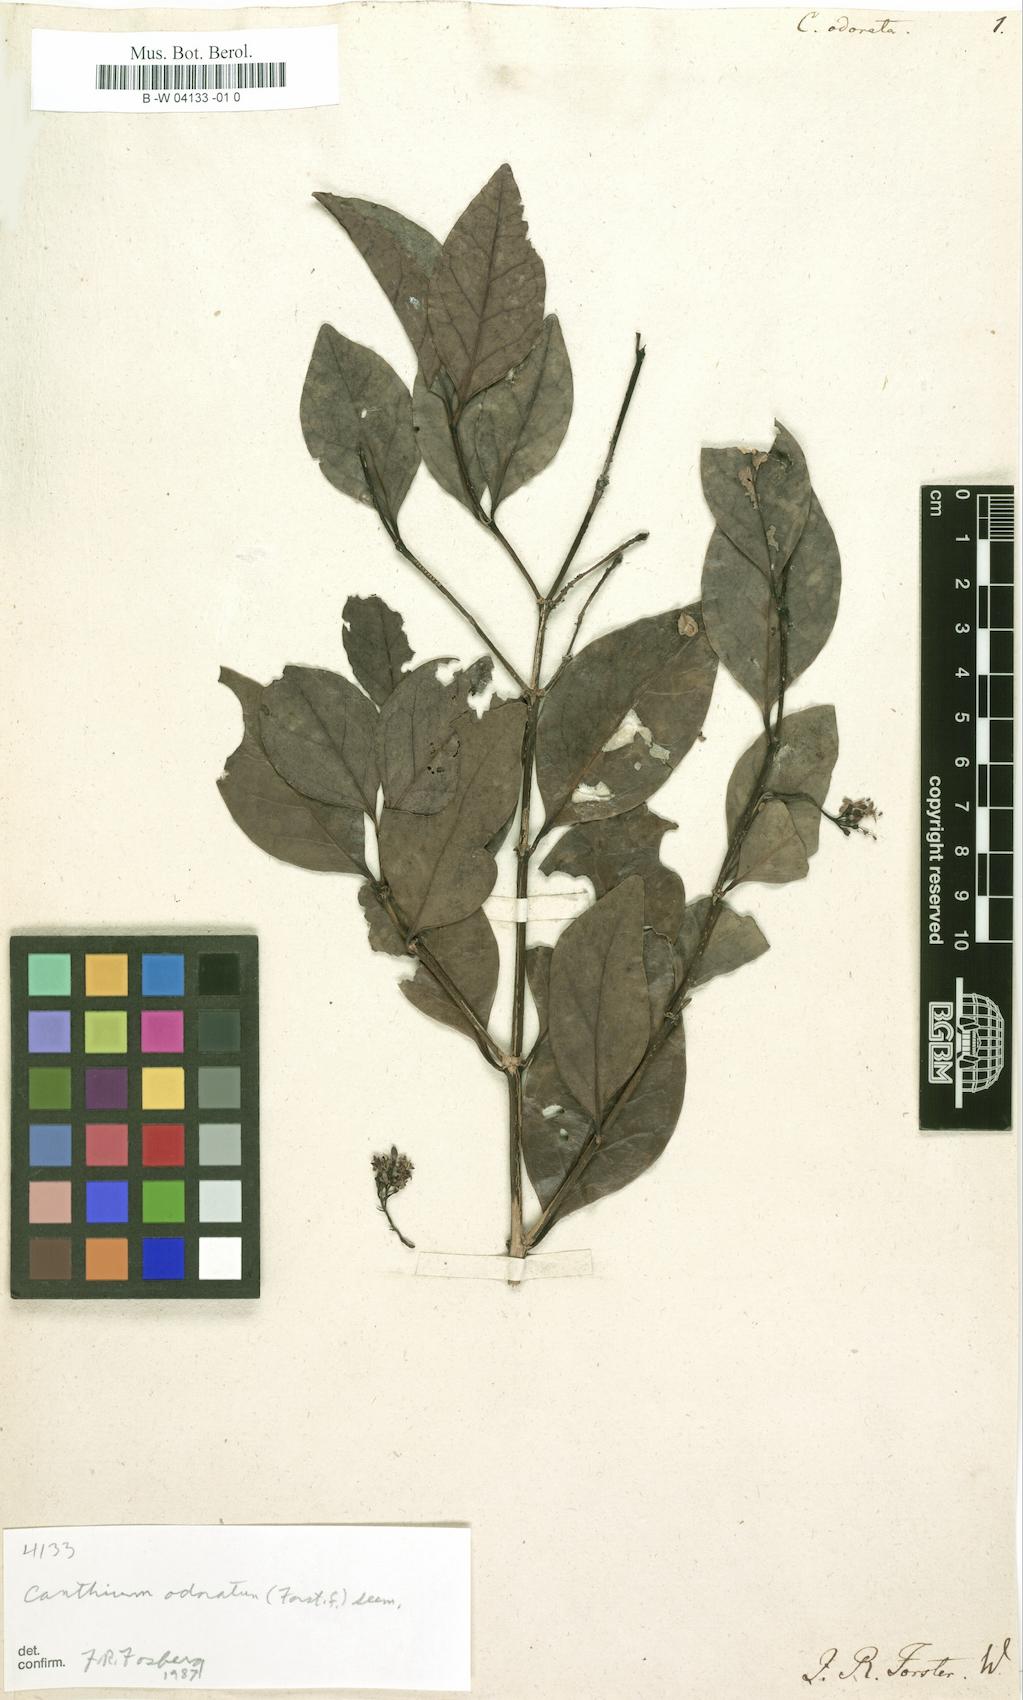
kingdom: Plantae
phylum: Tracheophyta
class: Magnoliopsida
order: Gentianales
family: Rubiaceae
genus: Psydrax
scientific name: Psydrax odoratus
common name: Alahe'e
